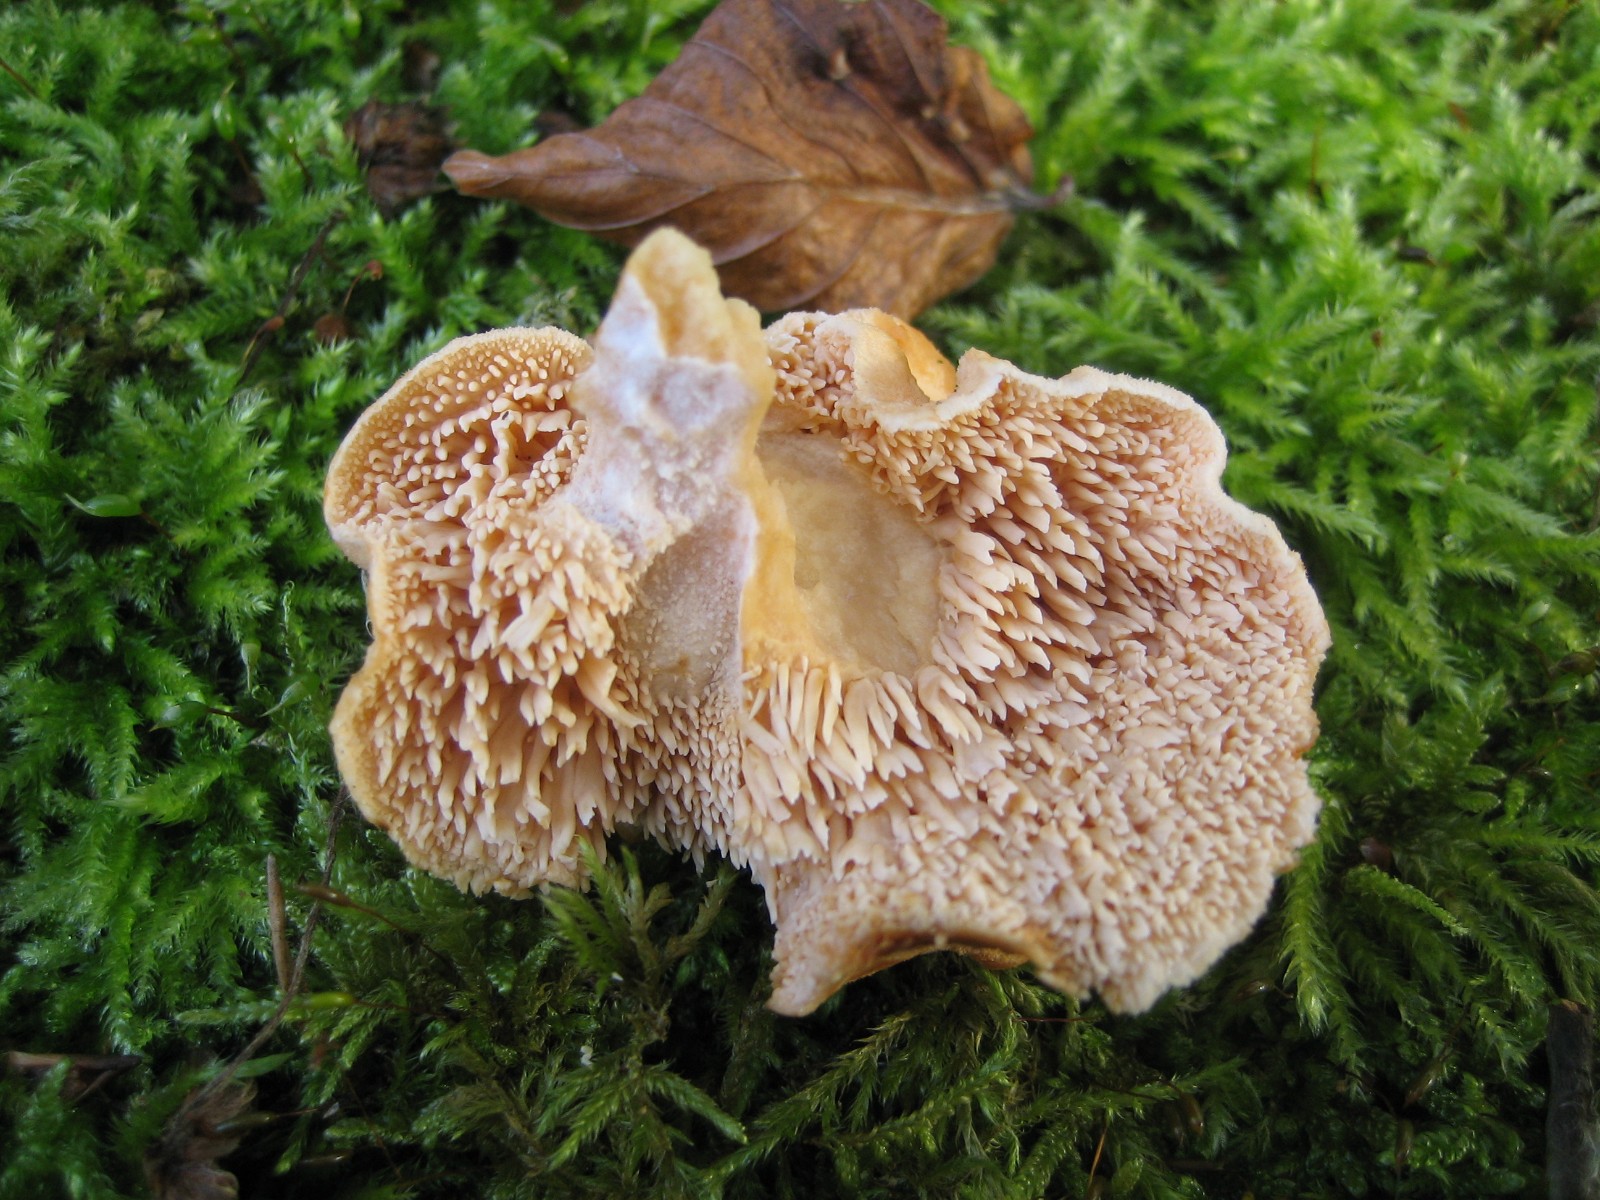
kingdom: Fungi
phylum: Basidiomycota
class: Agaricomycetes
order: Cantharellales
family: Hydnaceae
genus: Hydnum
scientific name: Hydnum rufescens
